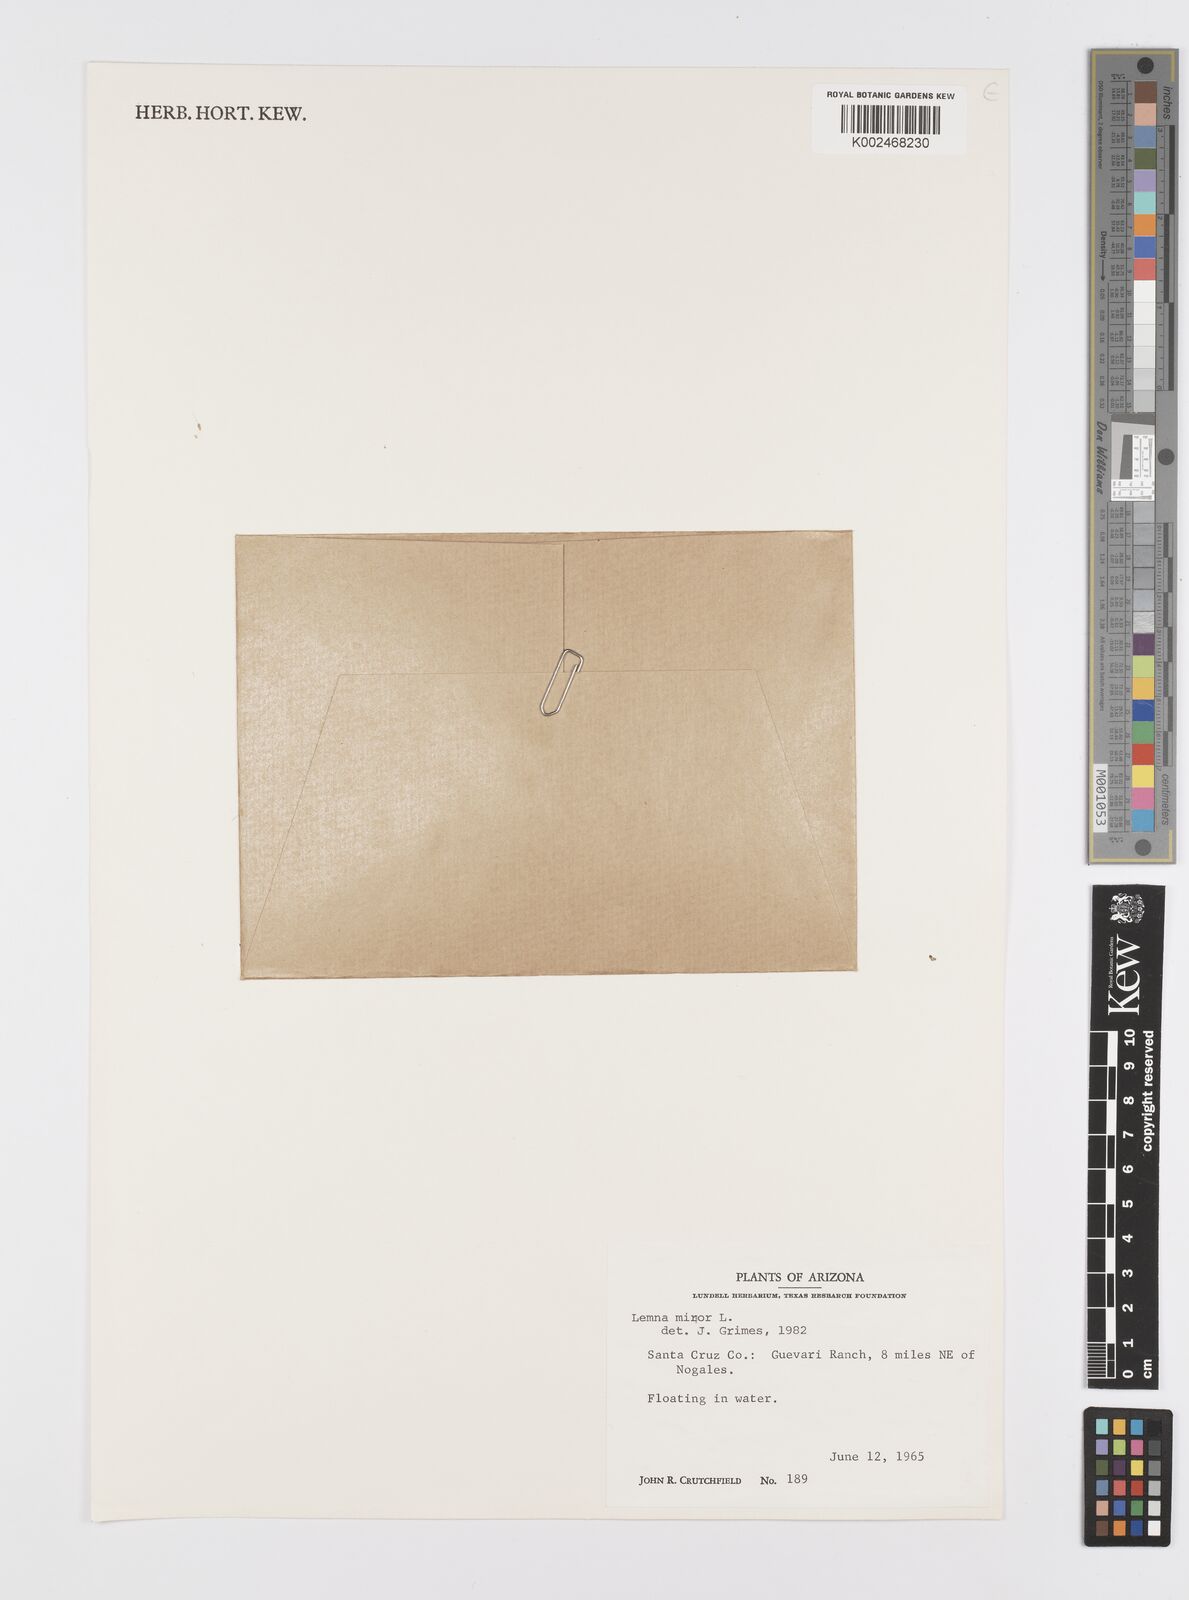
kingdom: Plantae
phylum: Tracheophyta
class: Liliopsida
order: Alismatales
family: Araceae
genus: Lemna
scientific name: Lemna minor
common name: Common duckweed
